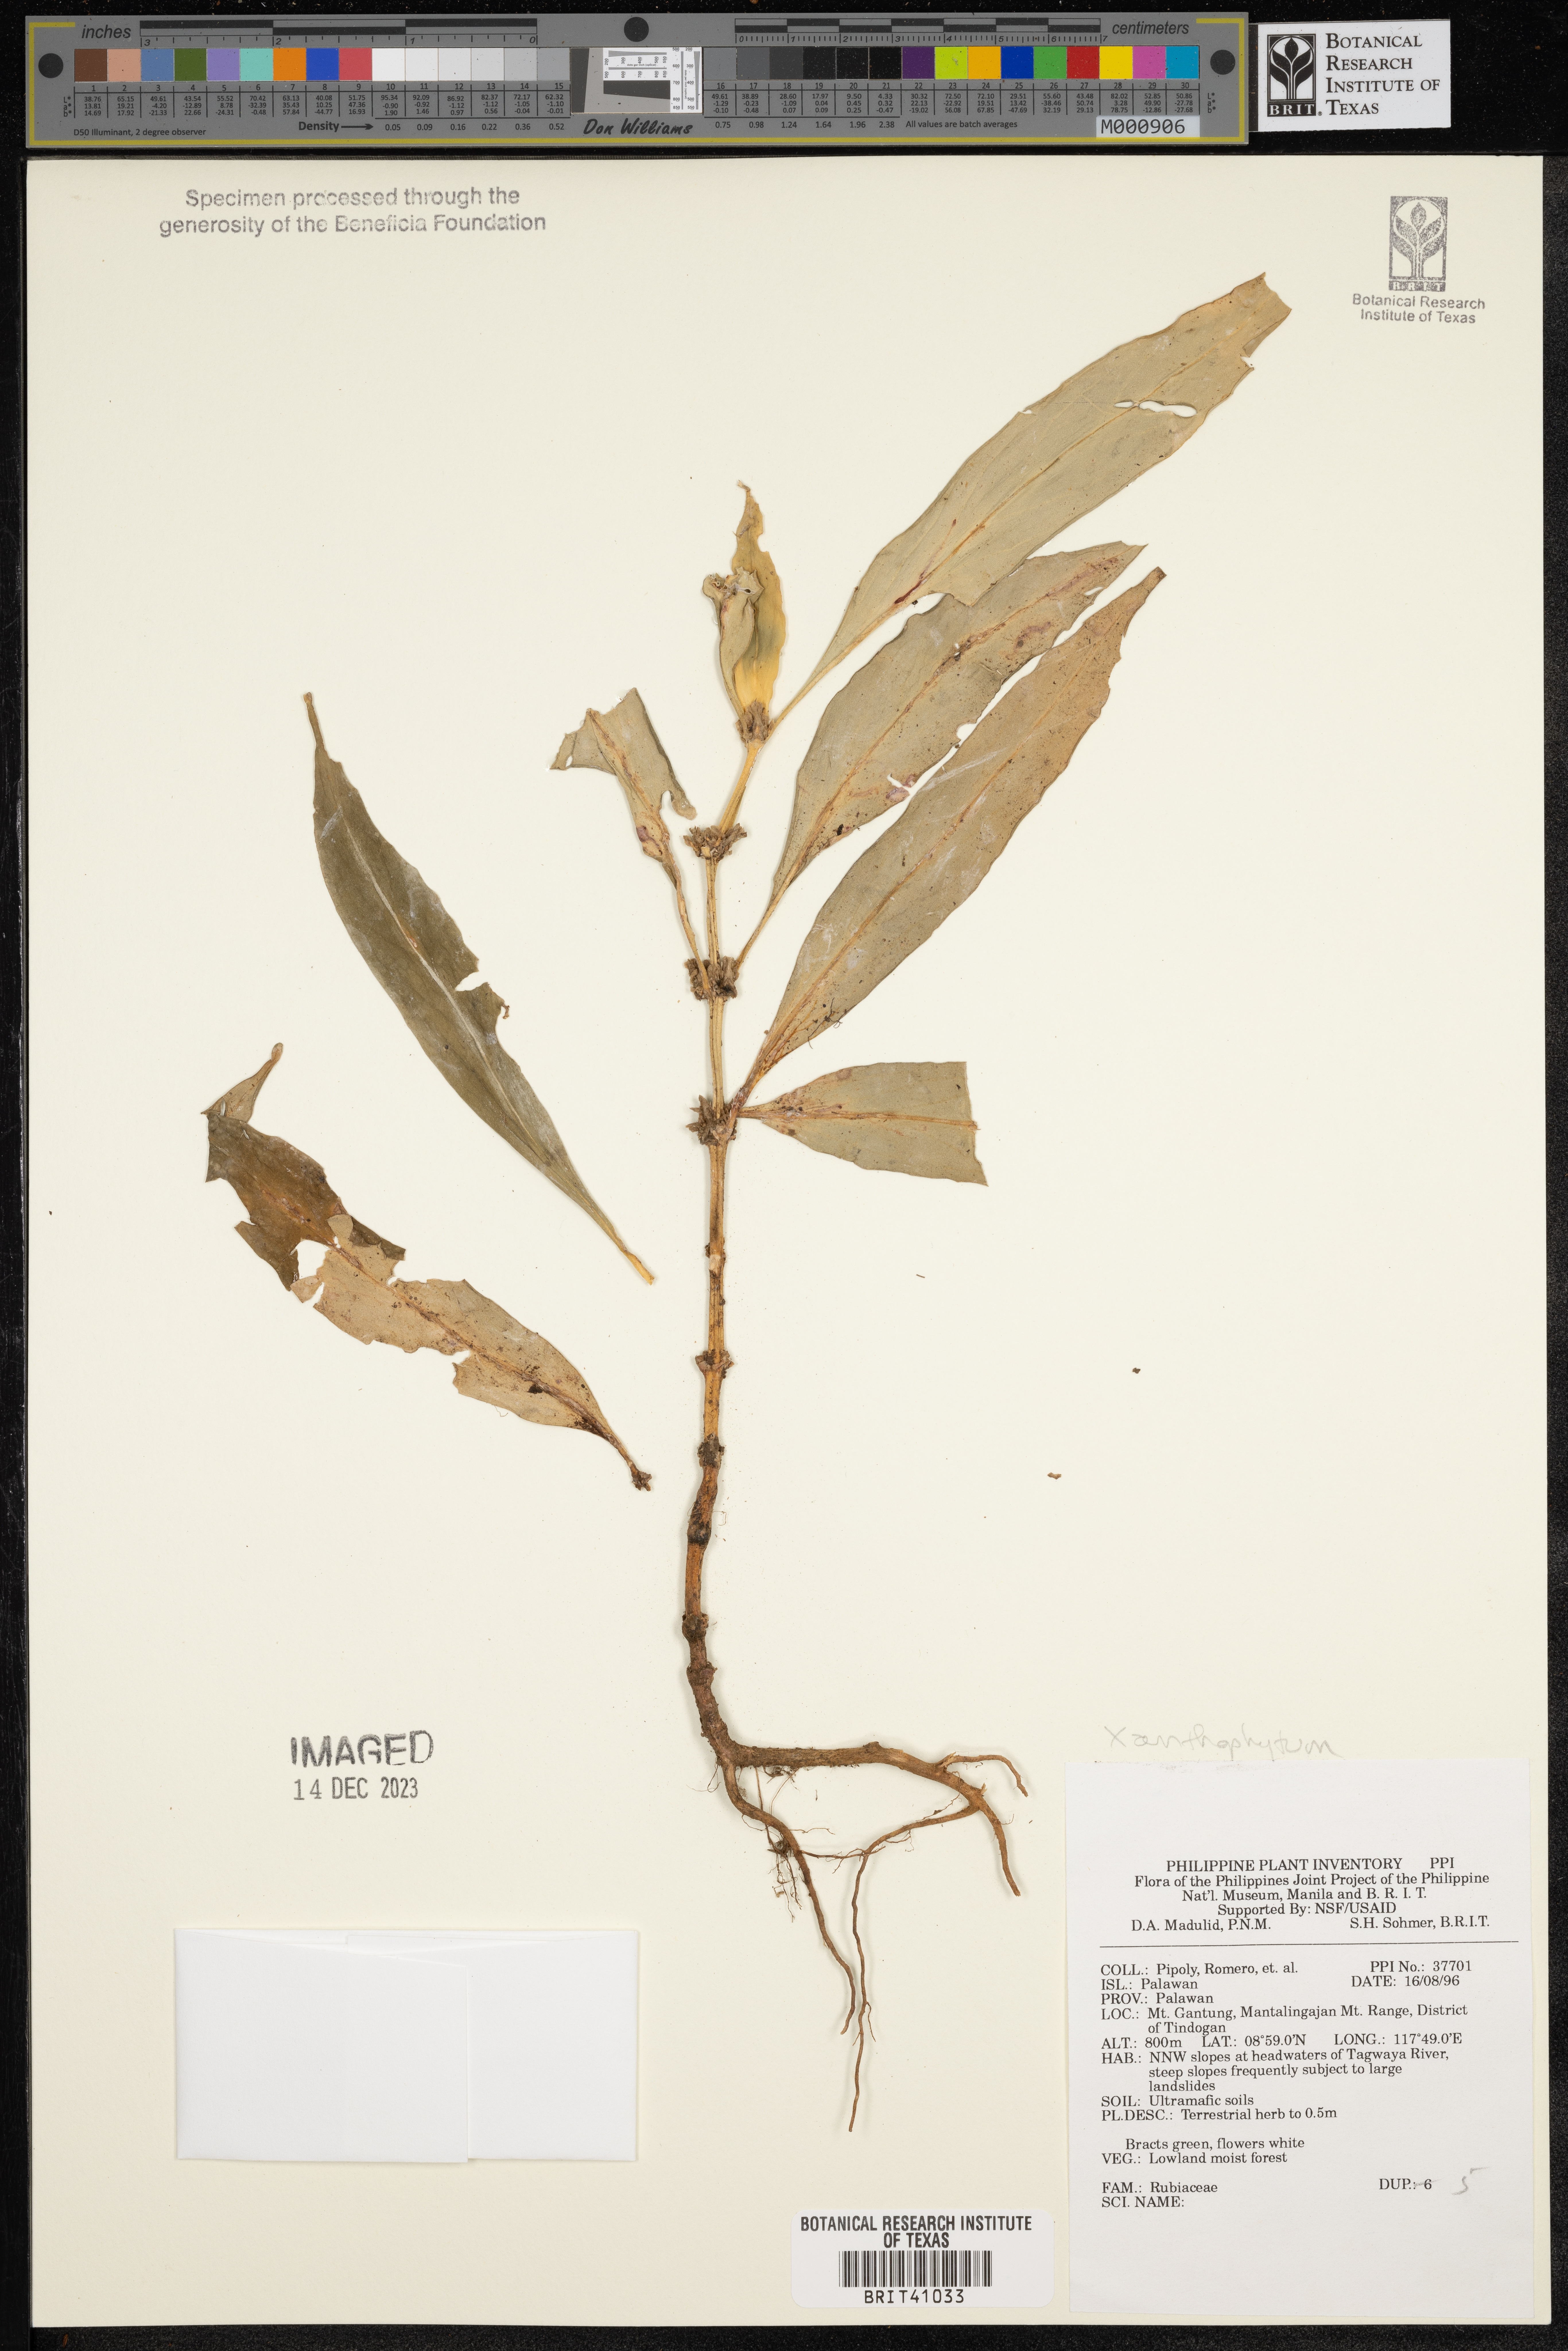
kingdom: Plantae
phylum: Tracheophyta
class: Magnoliopsida
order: Gentianales
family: Rubiaceae
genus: Xanthophytum
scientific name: Xanthophytum
